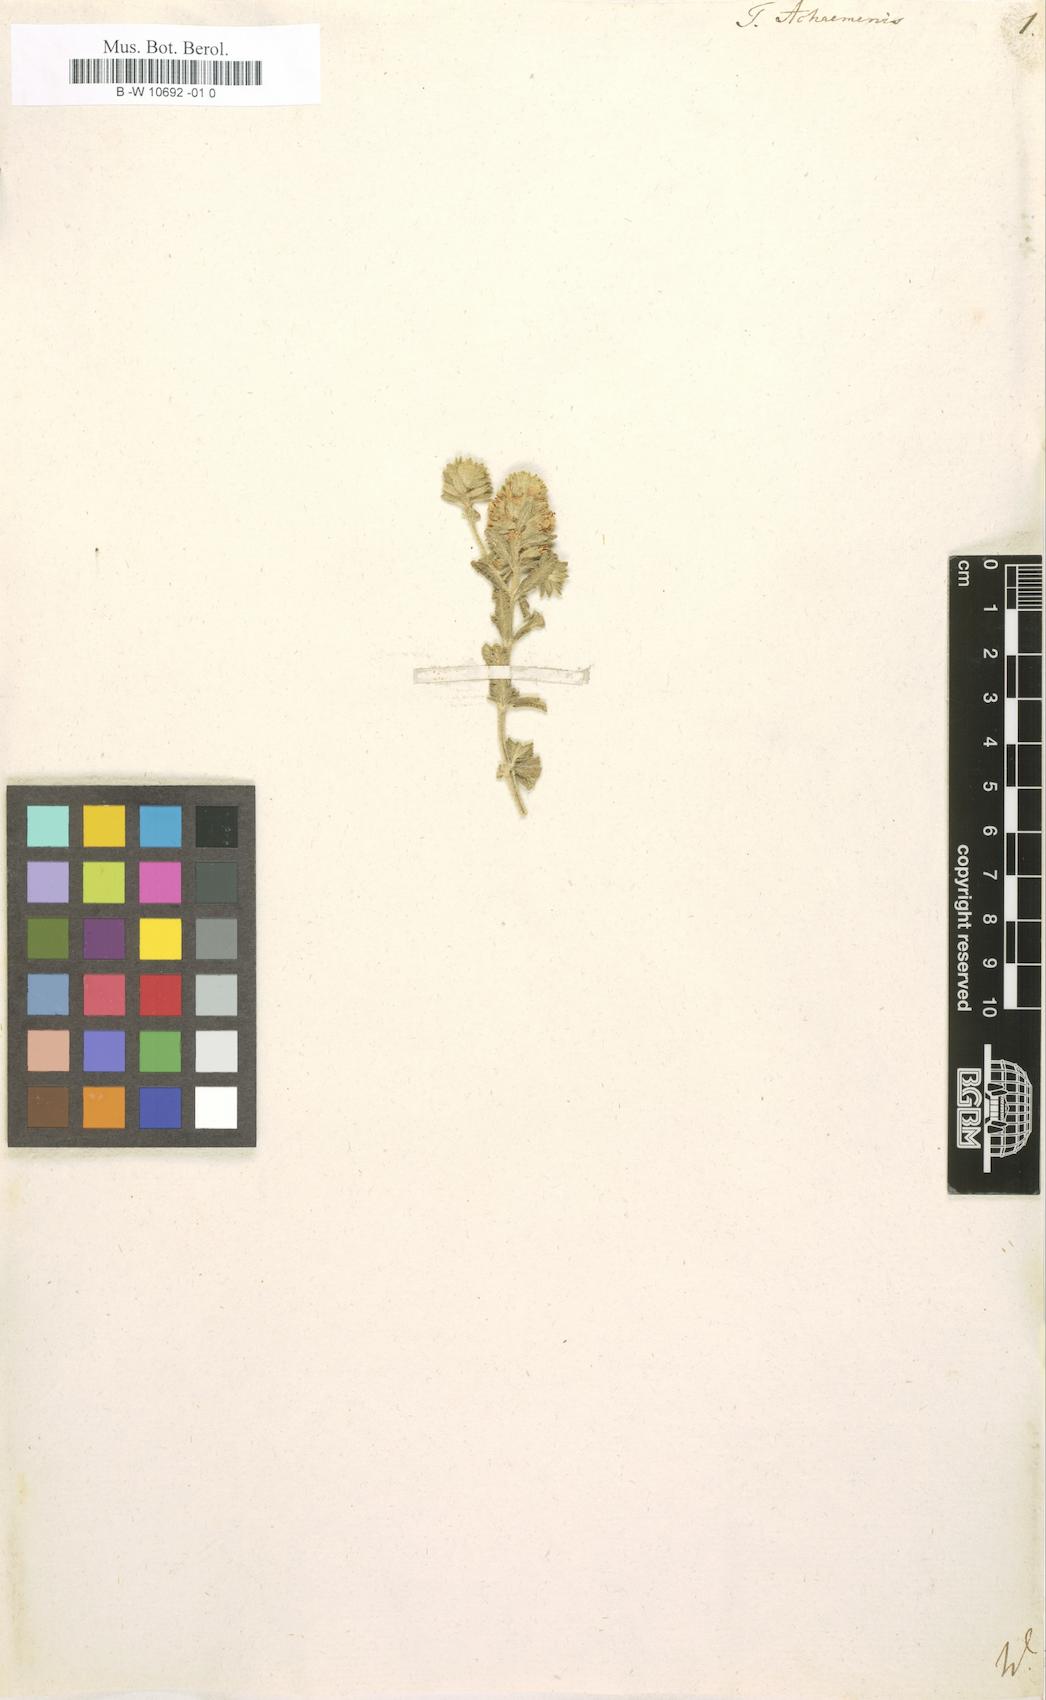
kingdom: Plantae
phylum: Tracheophyta
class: Magnoliopsida
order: Lamiales
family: Lamiaceae
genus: Teucrium
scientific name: Teucrium capitatum
